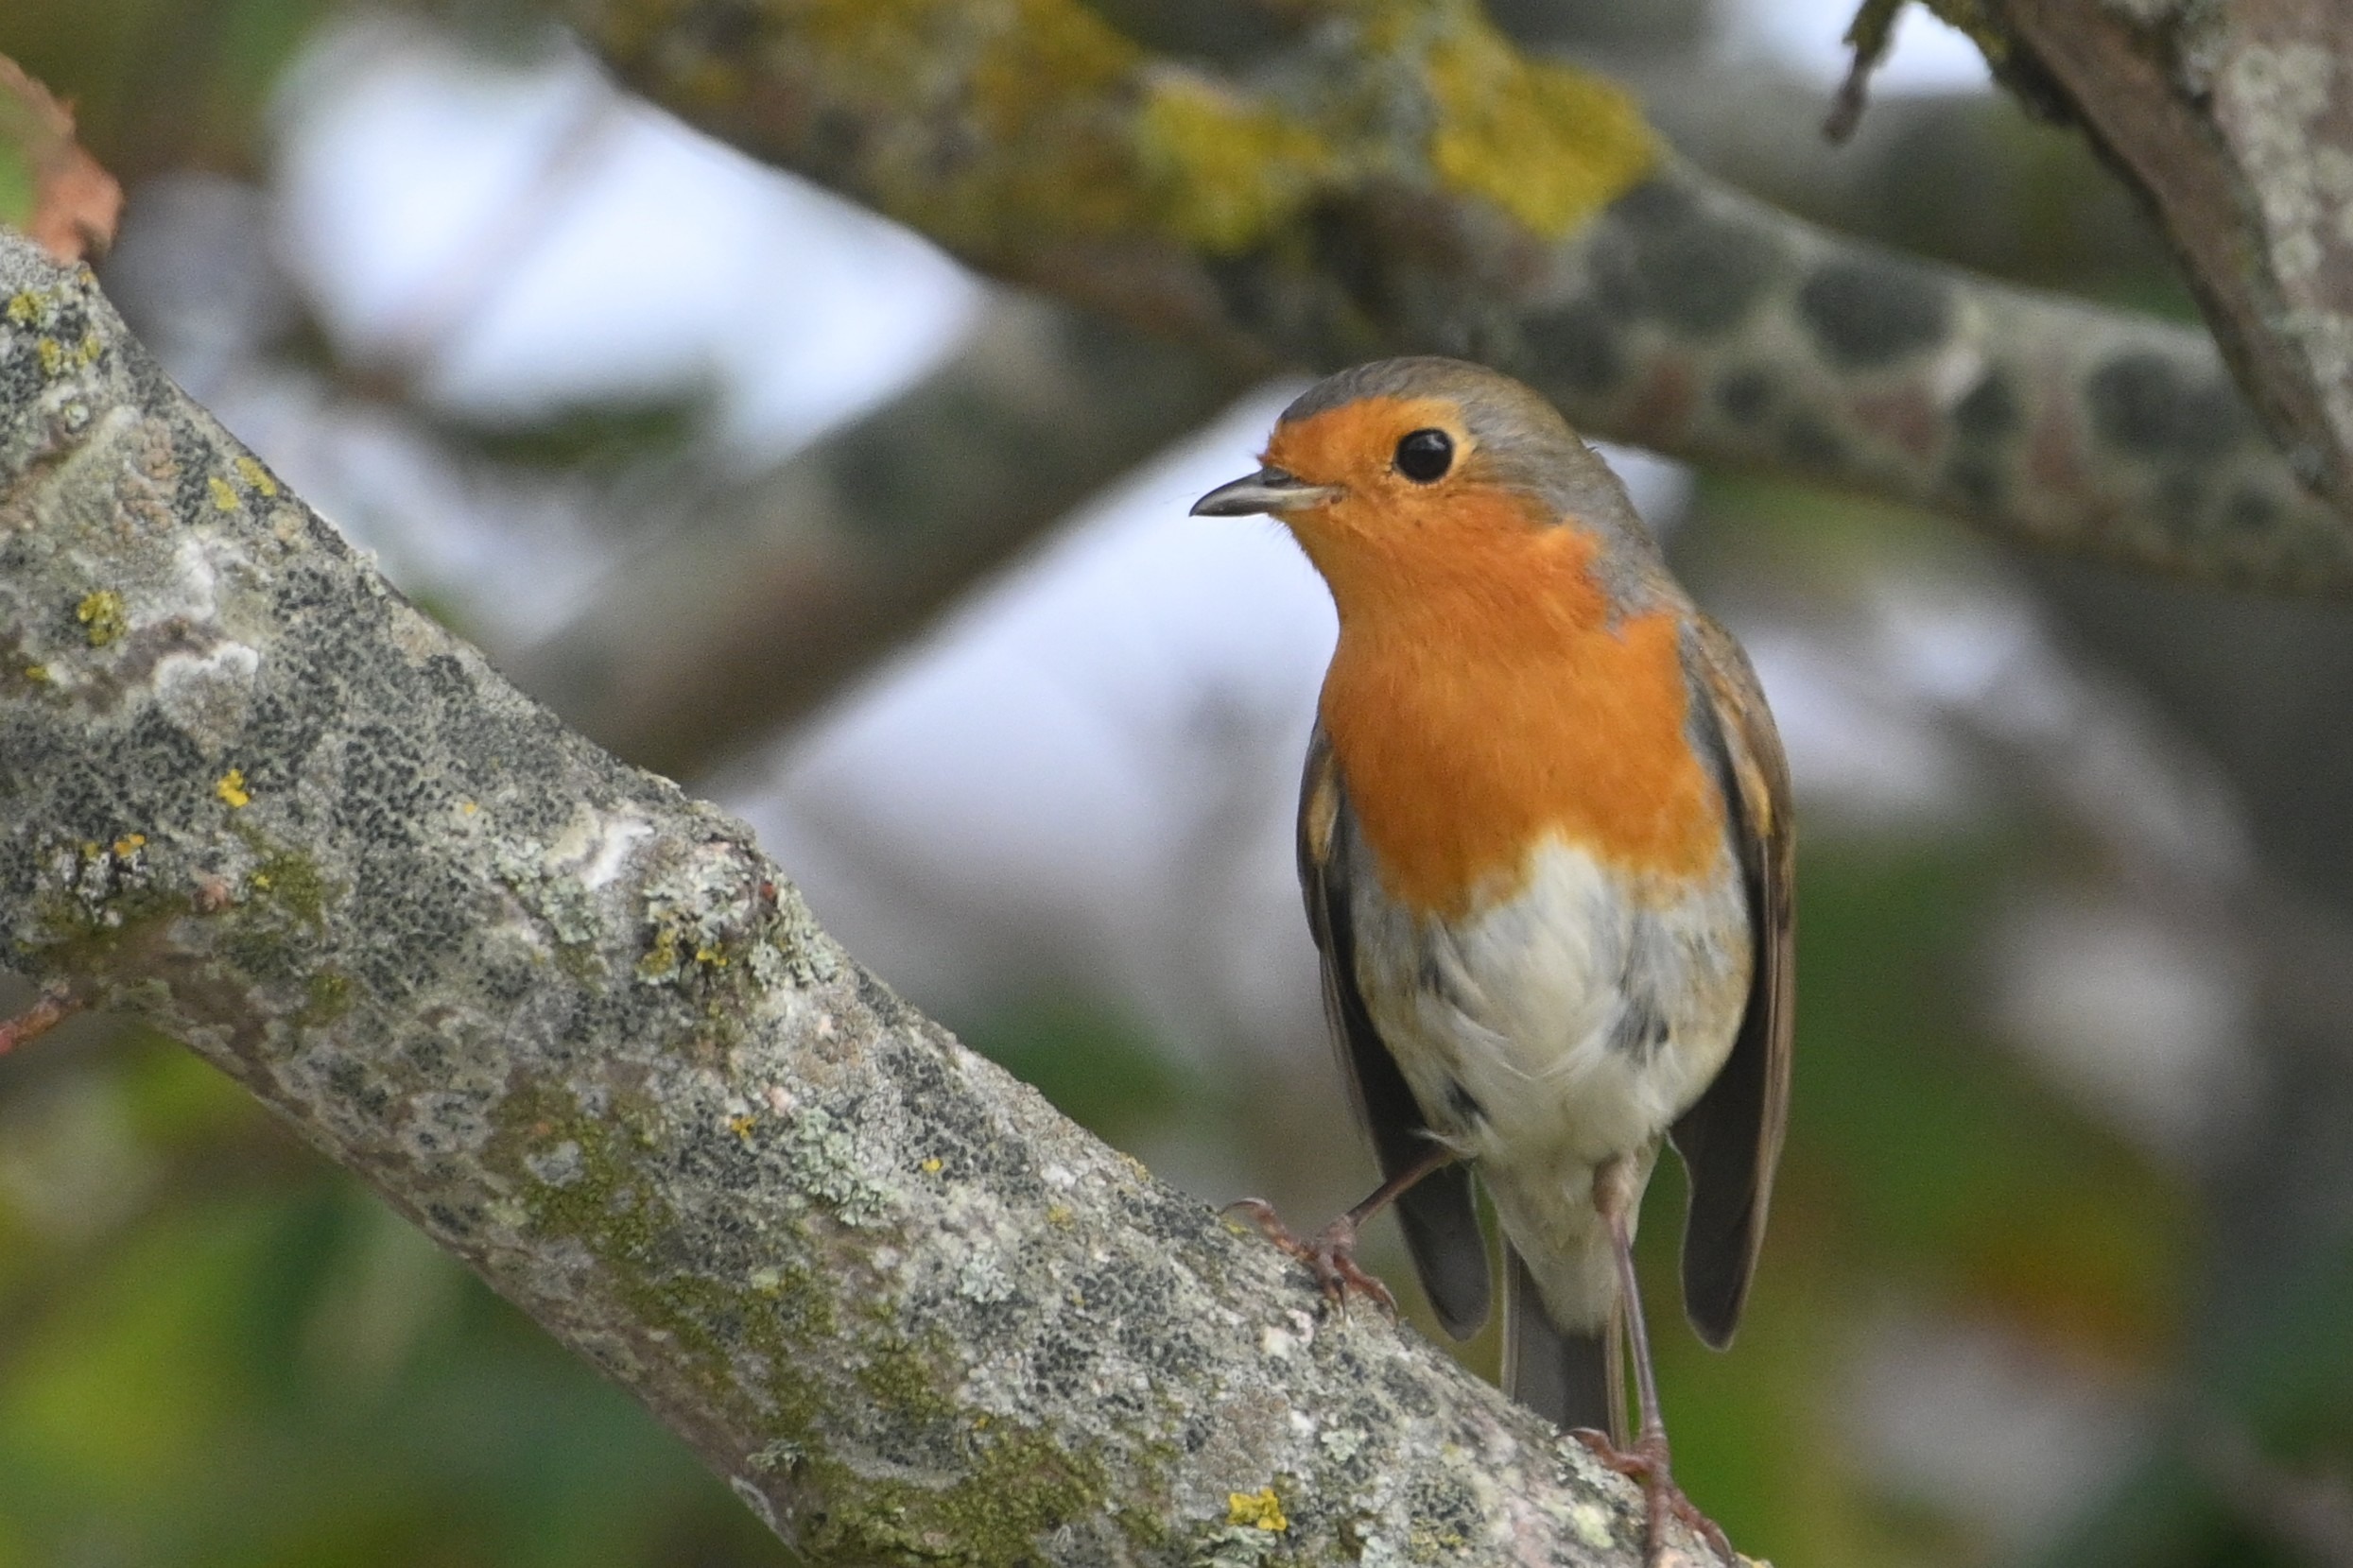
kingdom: Animalia
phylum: Chordata
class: Aves
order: Passeriformes
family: Muscicapidae
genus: Erithacus
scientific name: Erithacus rubecula
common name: Rødhals/rødkælk
